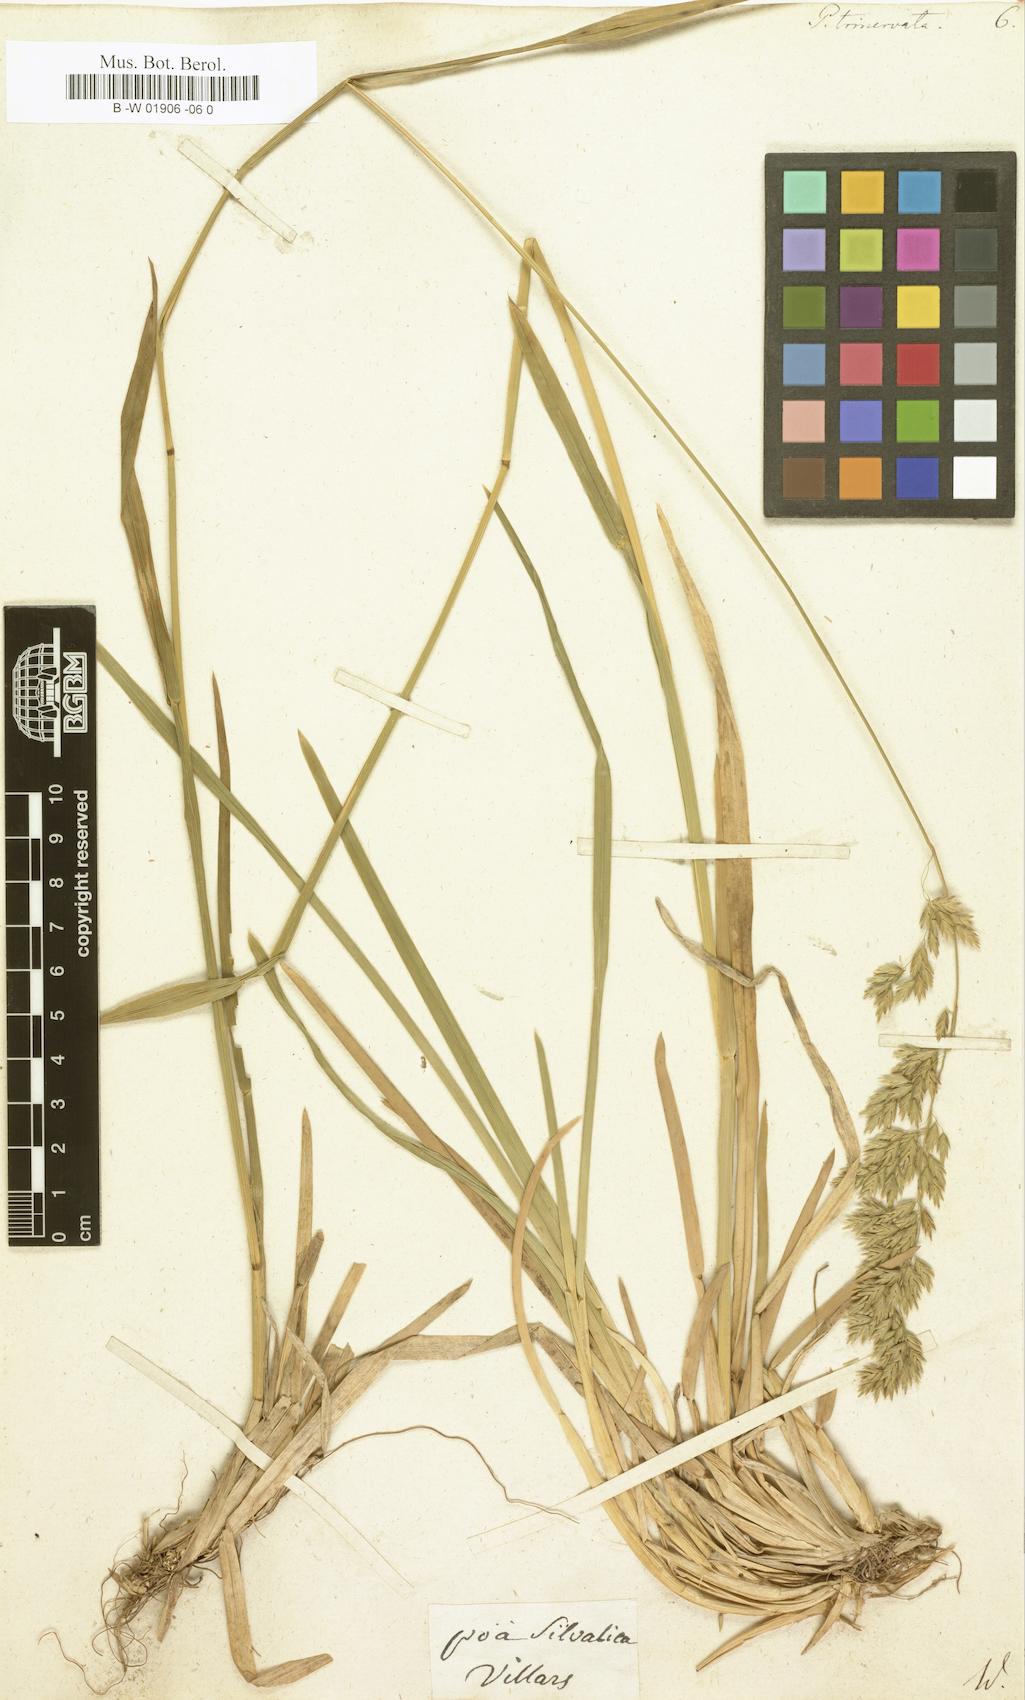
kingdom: Plantae
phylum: Tracheophyta
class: Liliopsida
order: Poales
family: Poaceae
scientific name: Poaceae
